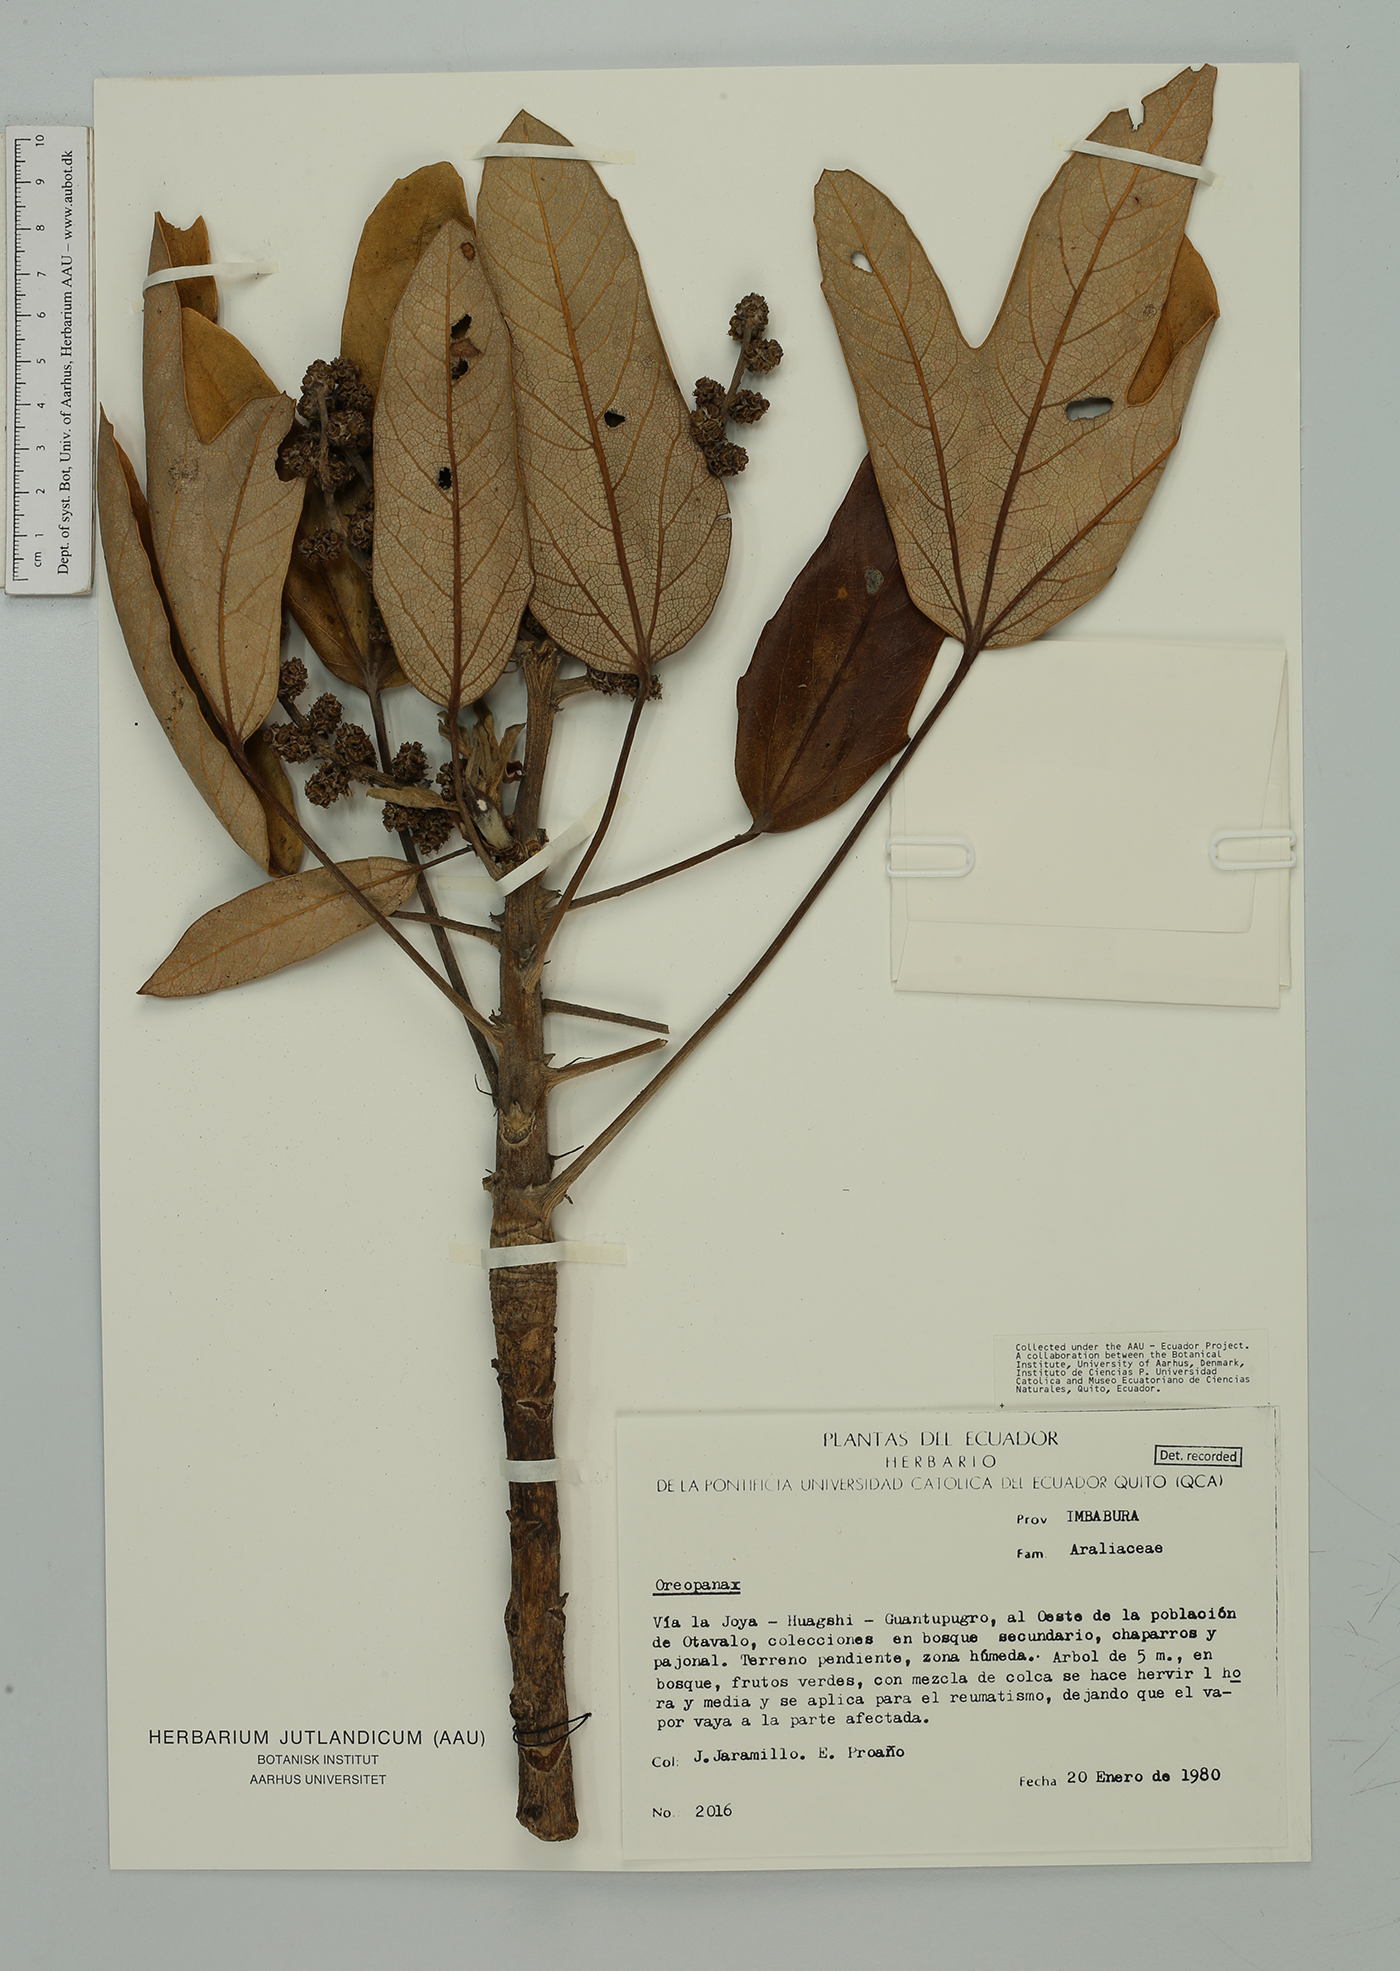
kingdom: Plantae
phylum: Tracheophyta
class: Magnoliopsida
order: Apiales
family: Araliaceae
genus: Oreopanax
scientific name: Oreopanax
